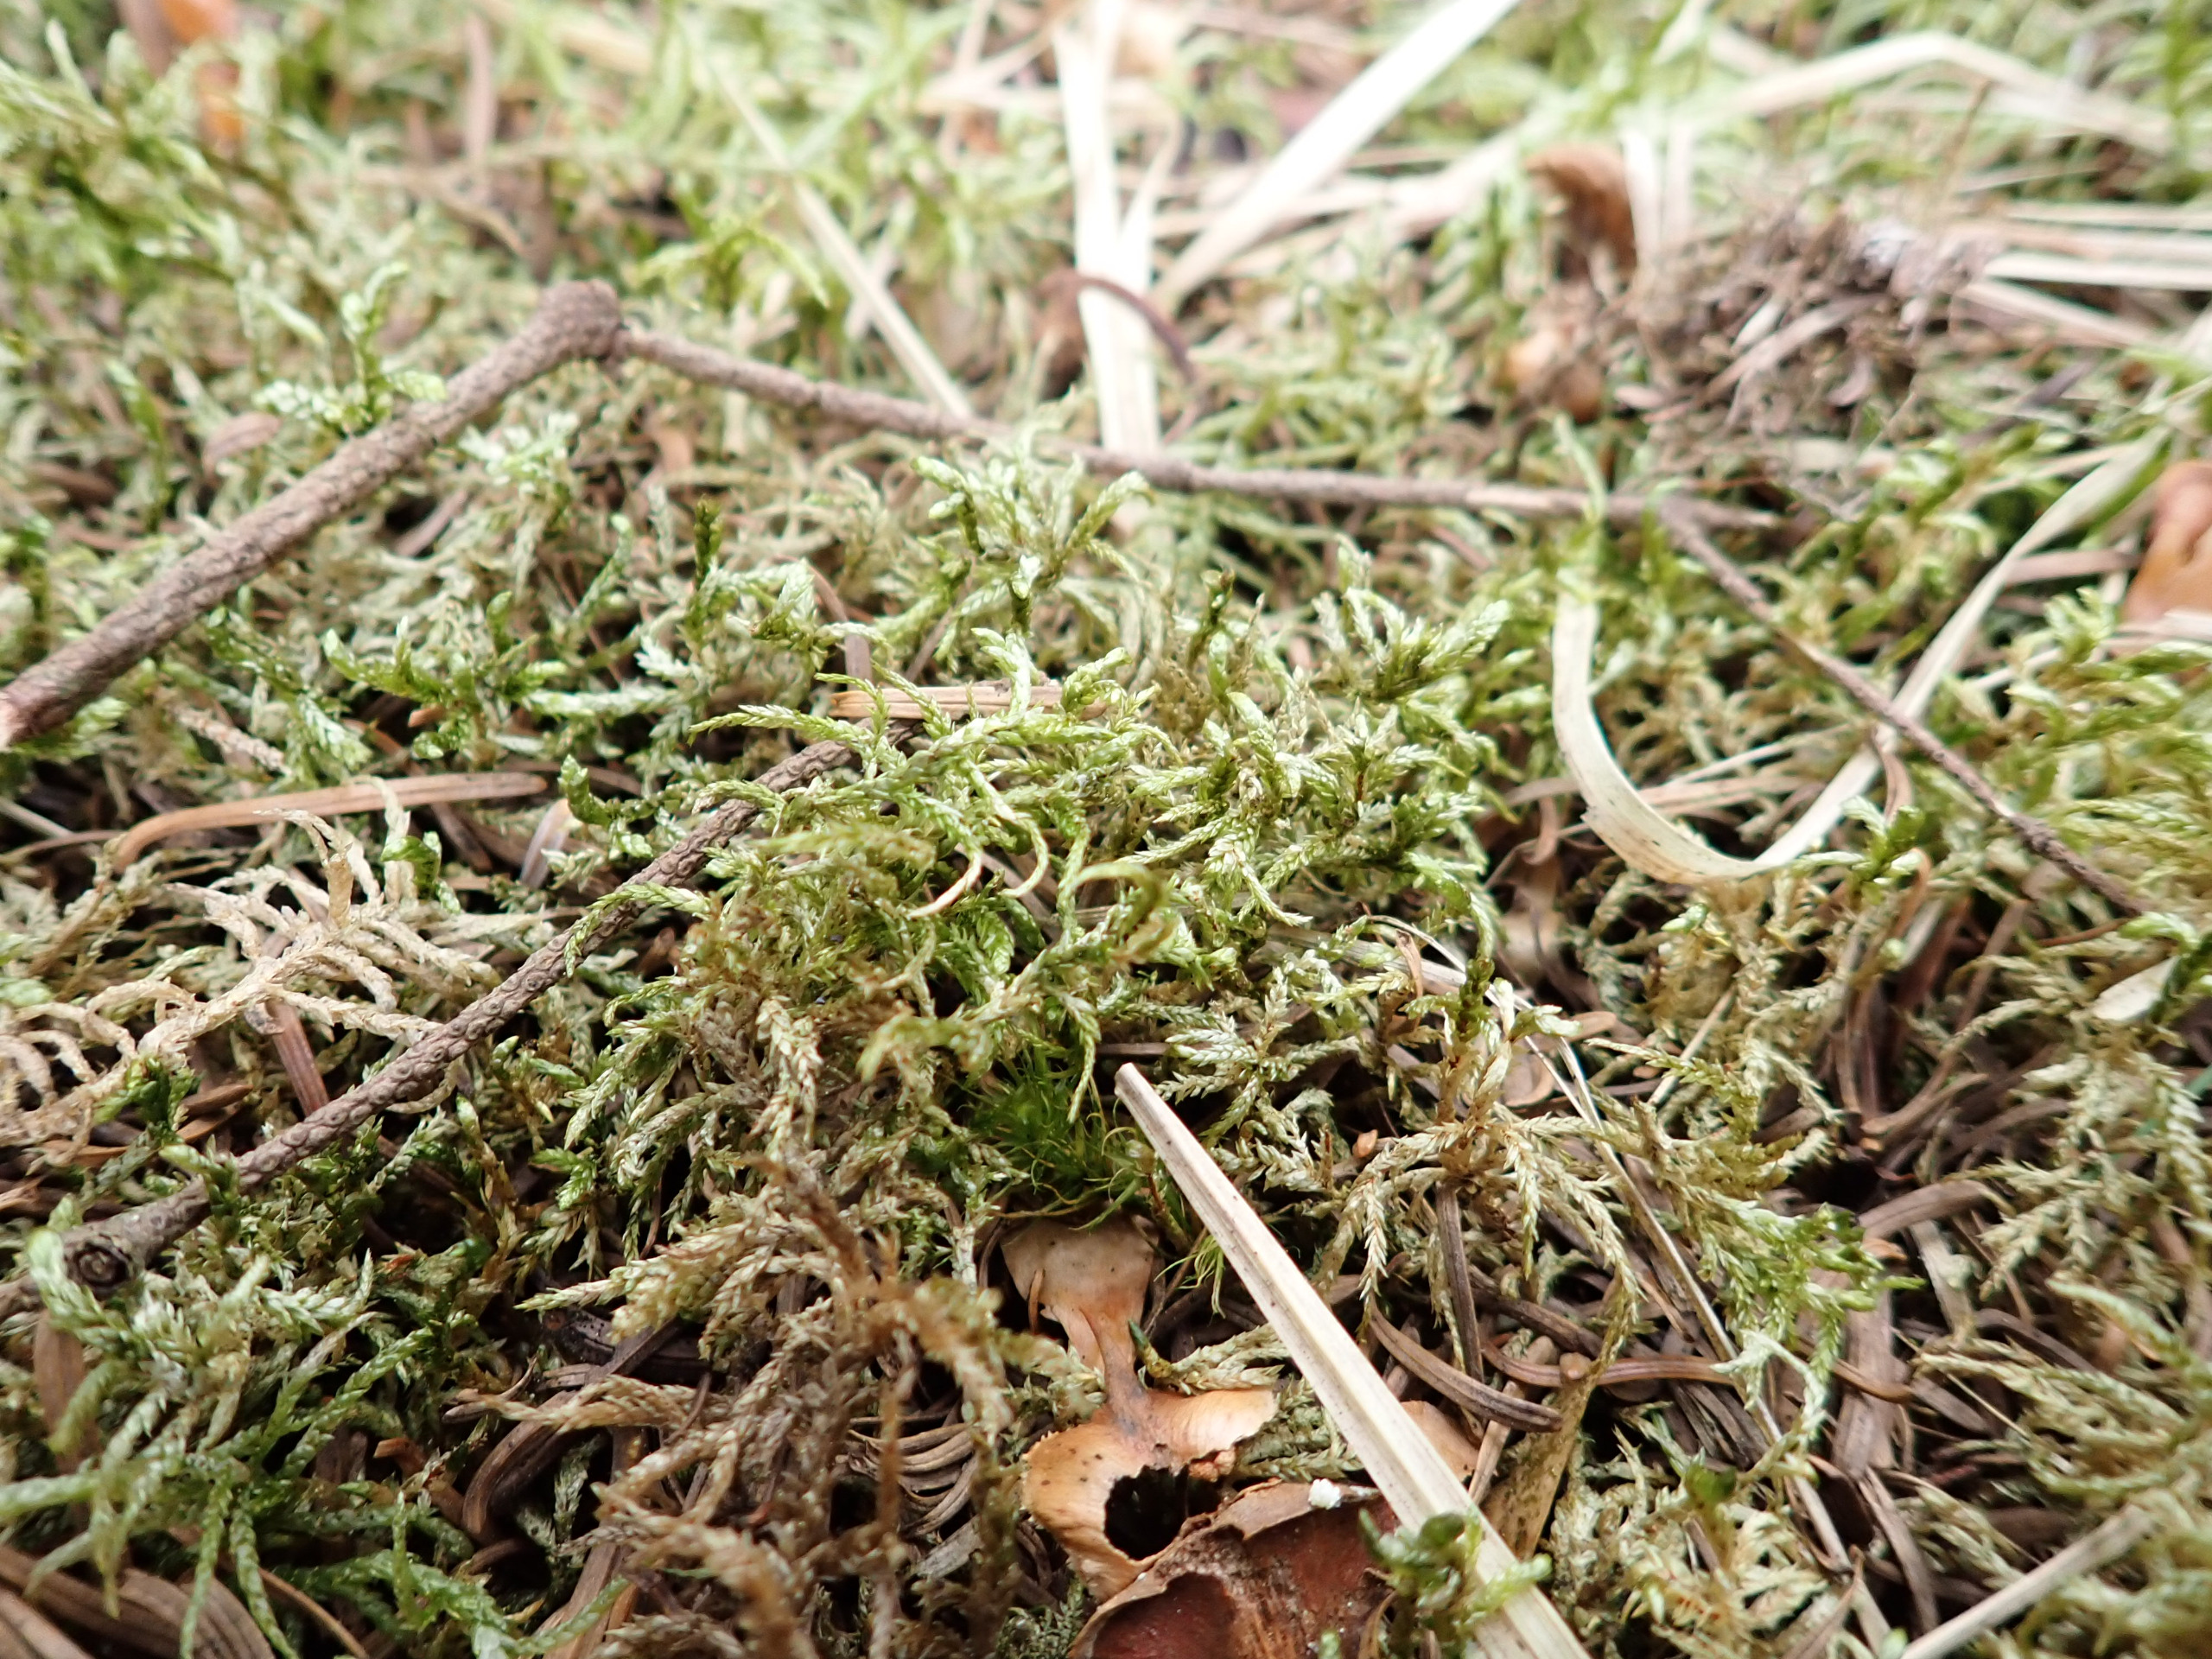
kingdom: Plantae
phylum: Bryophyta
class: Bryopsida
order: Hypnales
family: Hylocomiaceae
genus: Pleurozium
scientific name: Pleurozium schreberi
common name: Trind fyrremos
